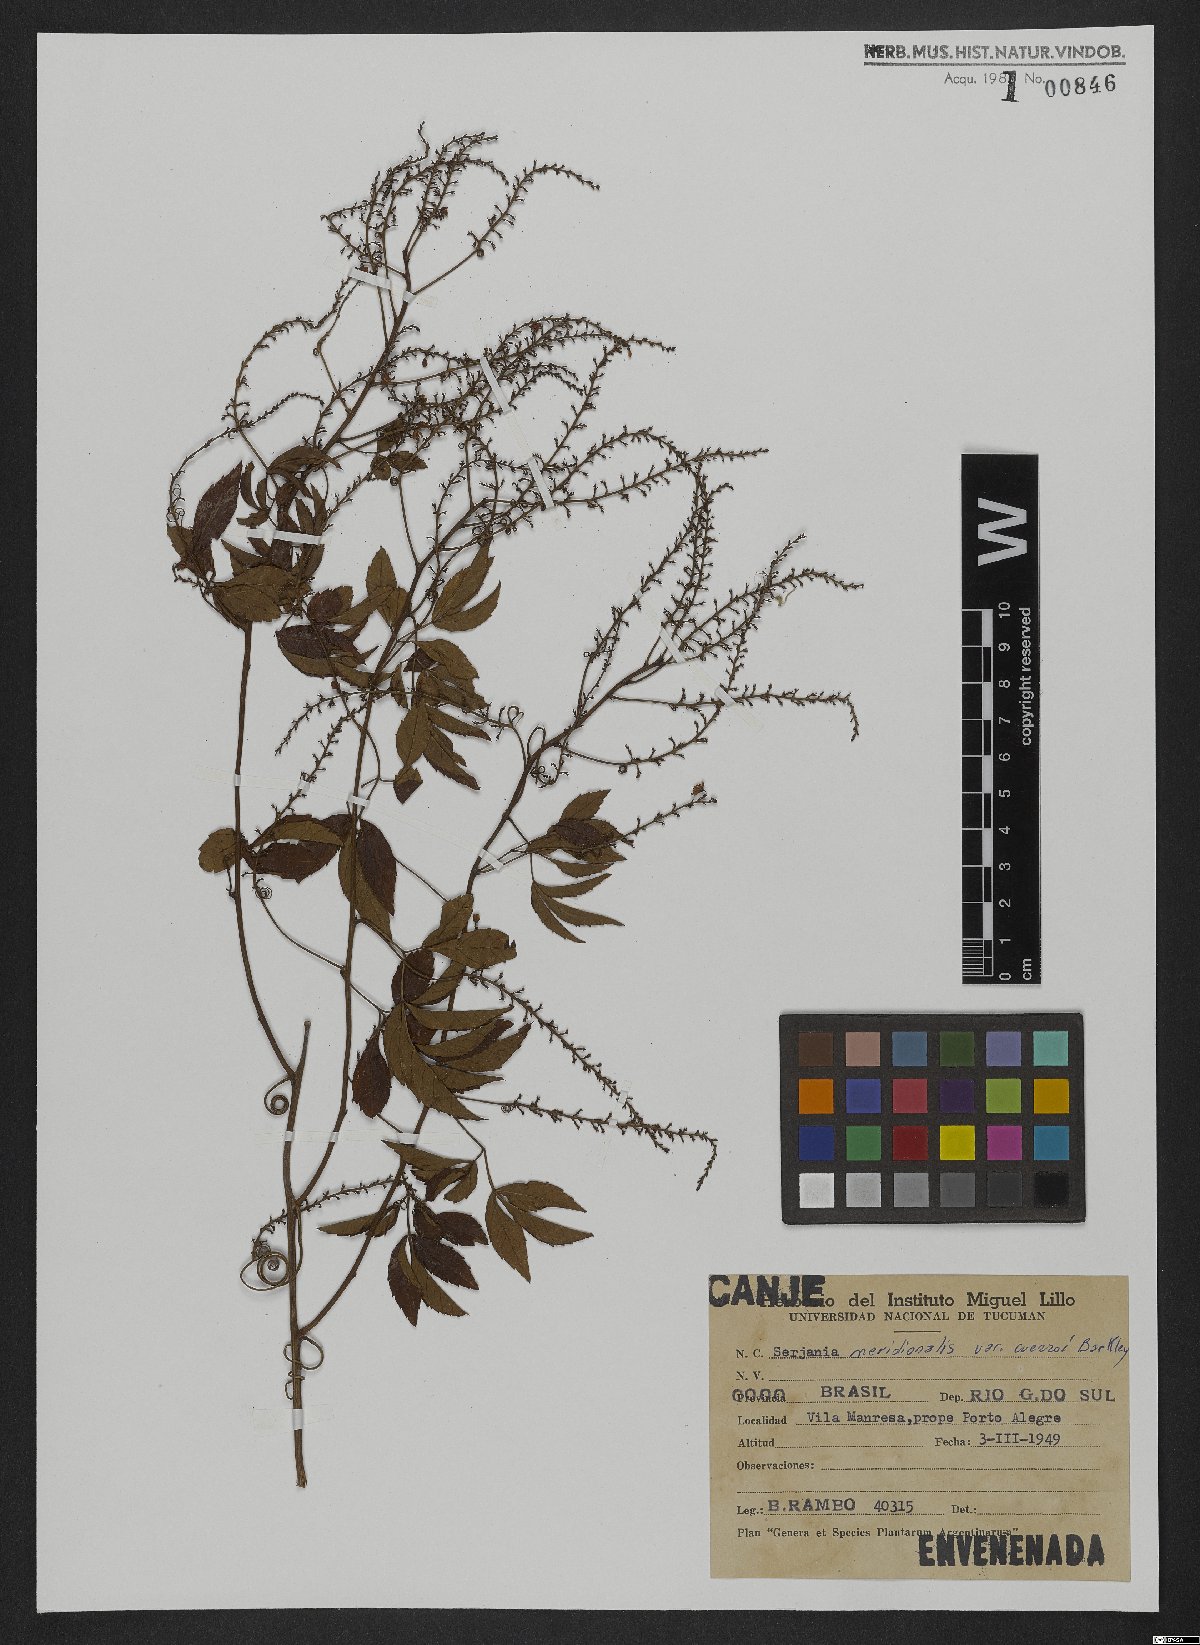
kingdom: Plantae
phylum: Tracheophyta
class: Magnoliopsida
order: Sapindales
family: Sapindaceae
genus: Serjania
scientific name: Serjania meridionalis
